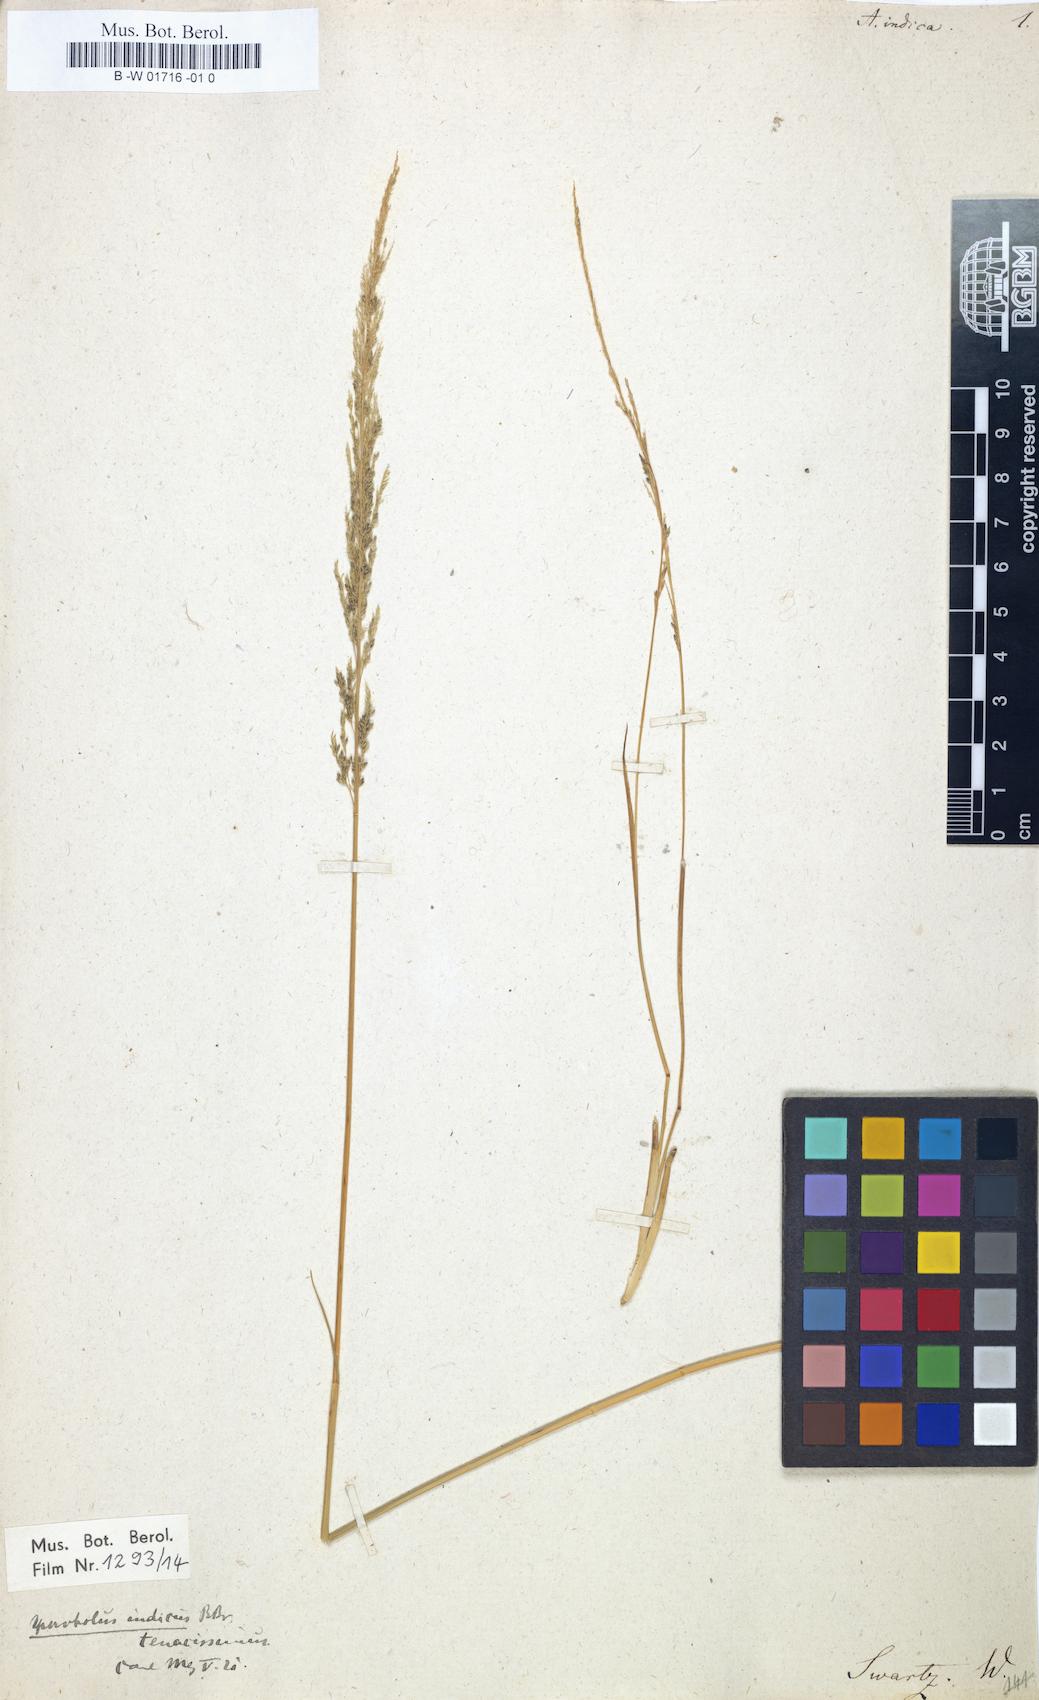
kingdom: Plantae
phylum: Tracheophyta
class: Liliopsida
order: Poales
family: Poaceae
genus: Sporobolus
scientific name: Sporobolus
